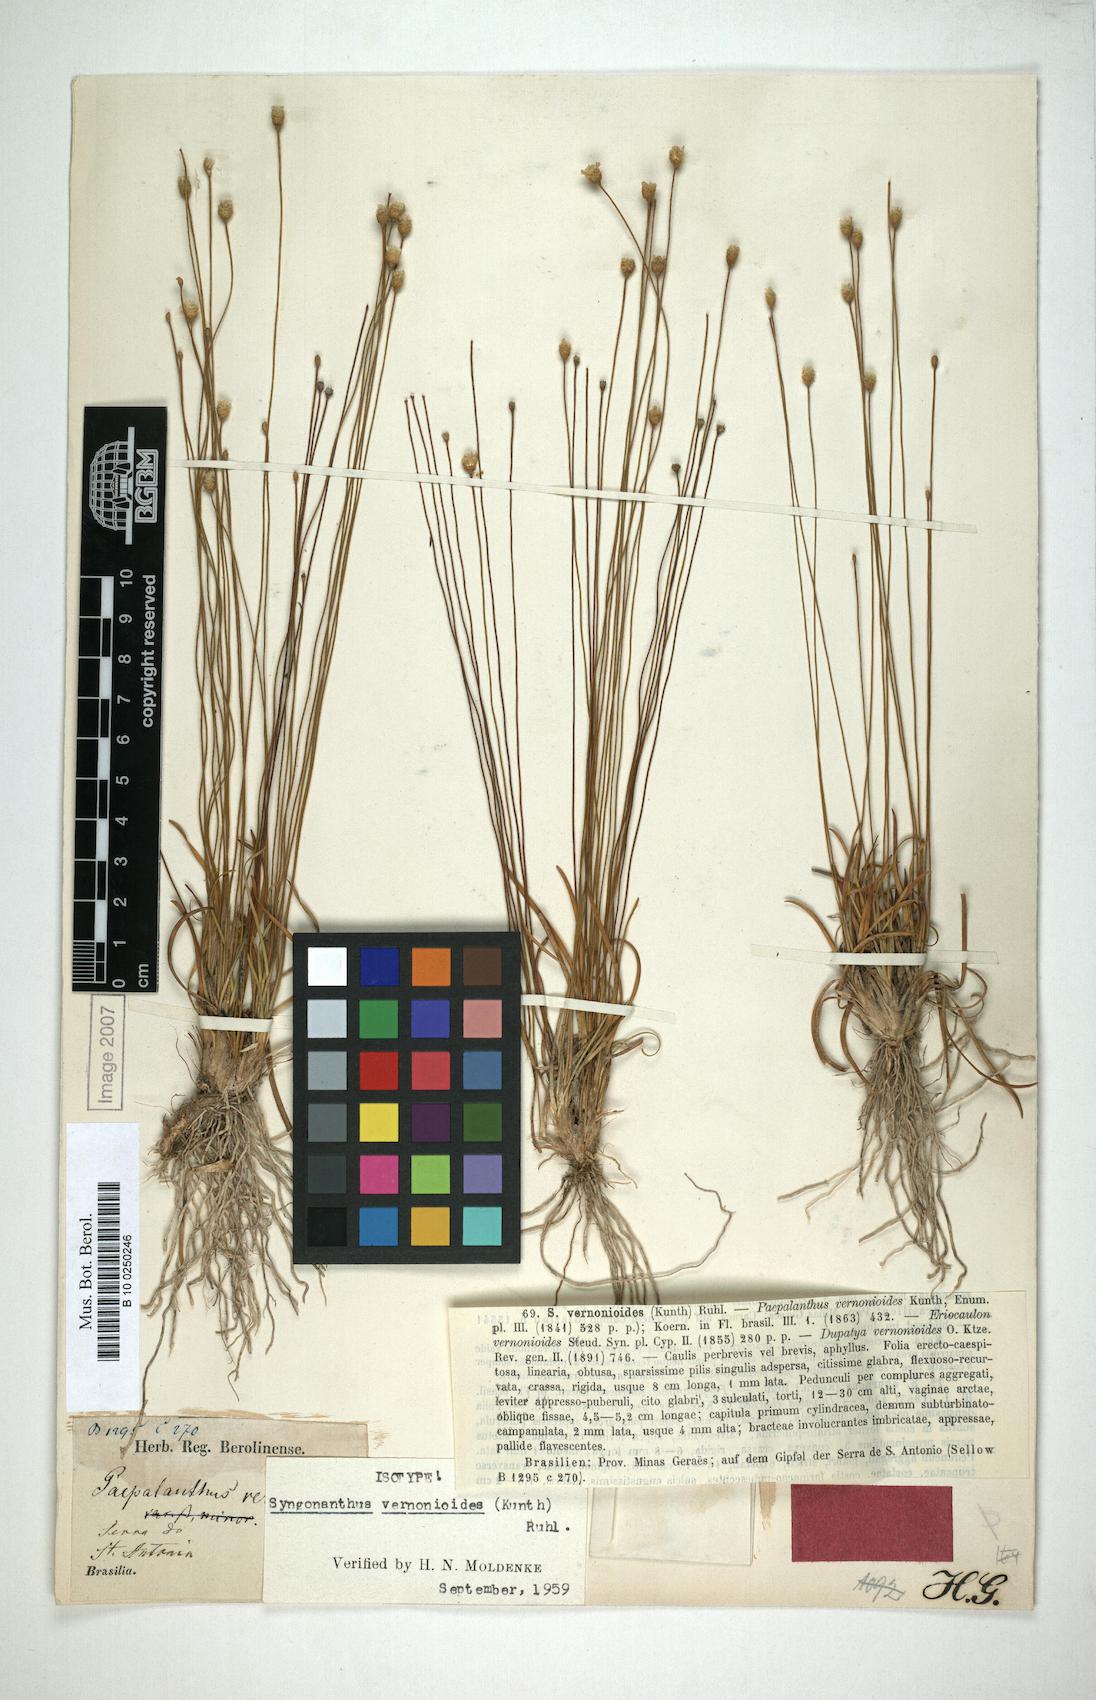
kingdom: Plantae
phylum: Tracheophyta
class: Liliopsida
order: Poales
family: Eriocaulaceae
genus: Comanthera
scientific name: Comanthera centauroides
